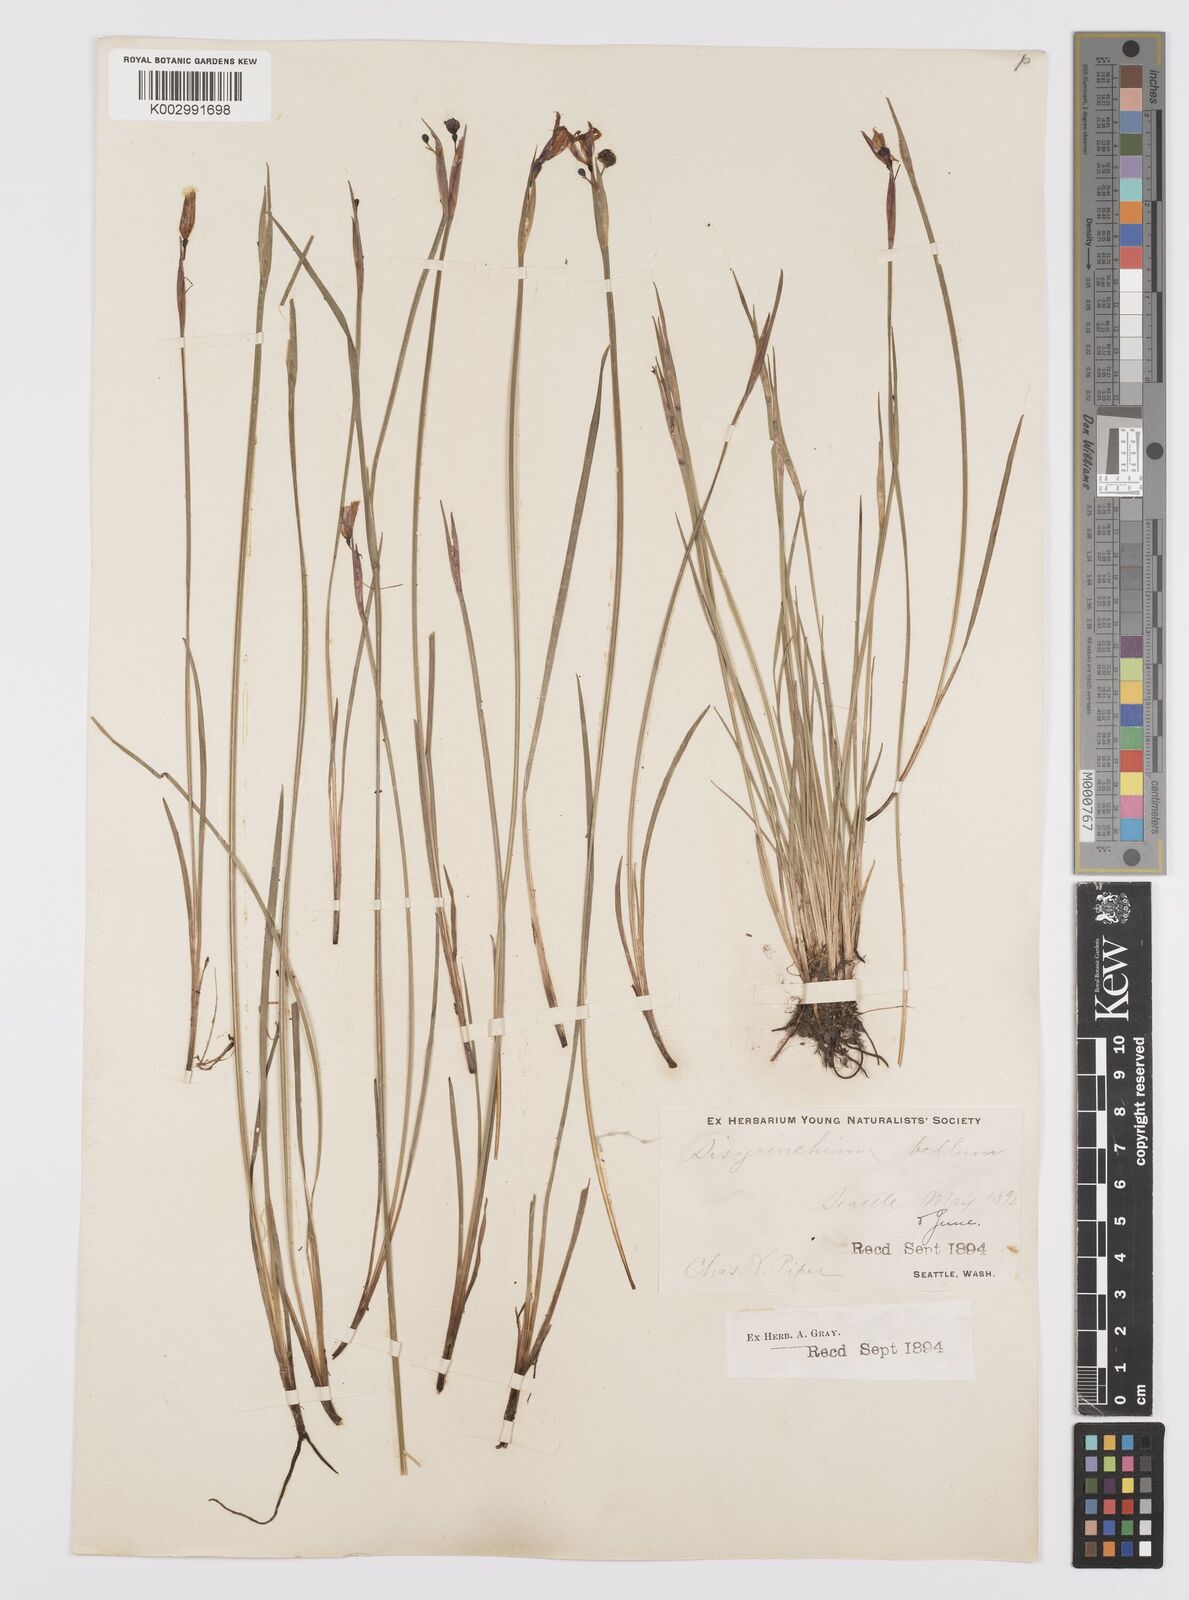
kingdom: Plantae
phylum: Tracheophyta
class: Liliopsida
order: Asparagales
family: Iridaceae
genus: Sisyrinchium
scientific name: Sisyrinchium bellum
